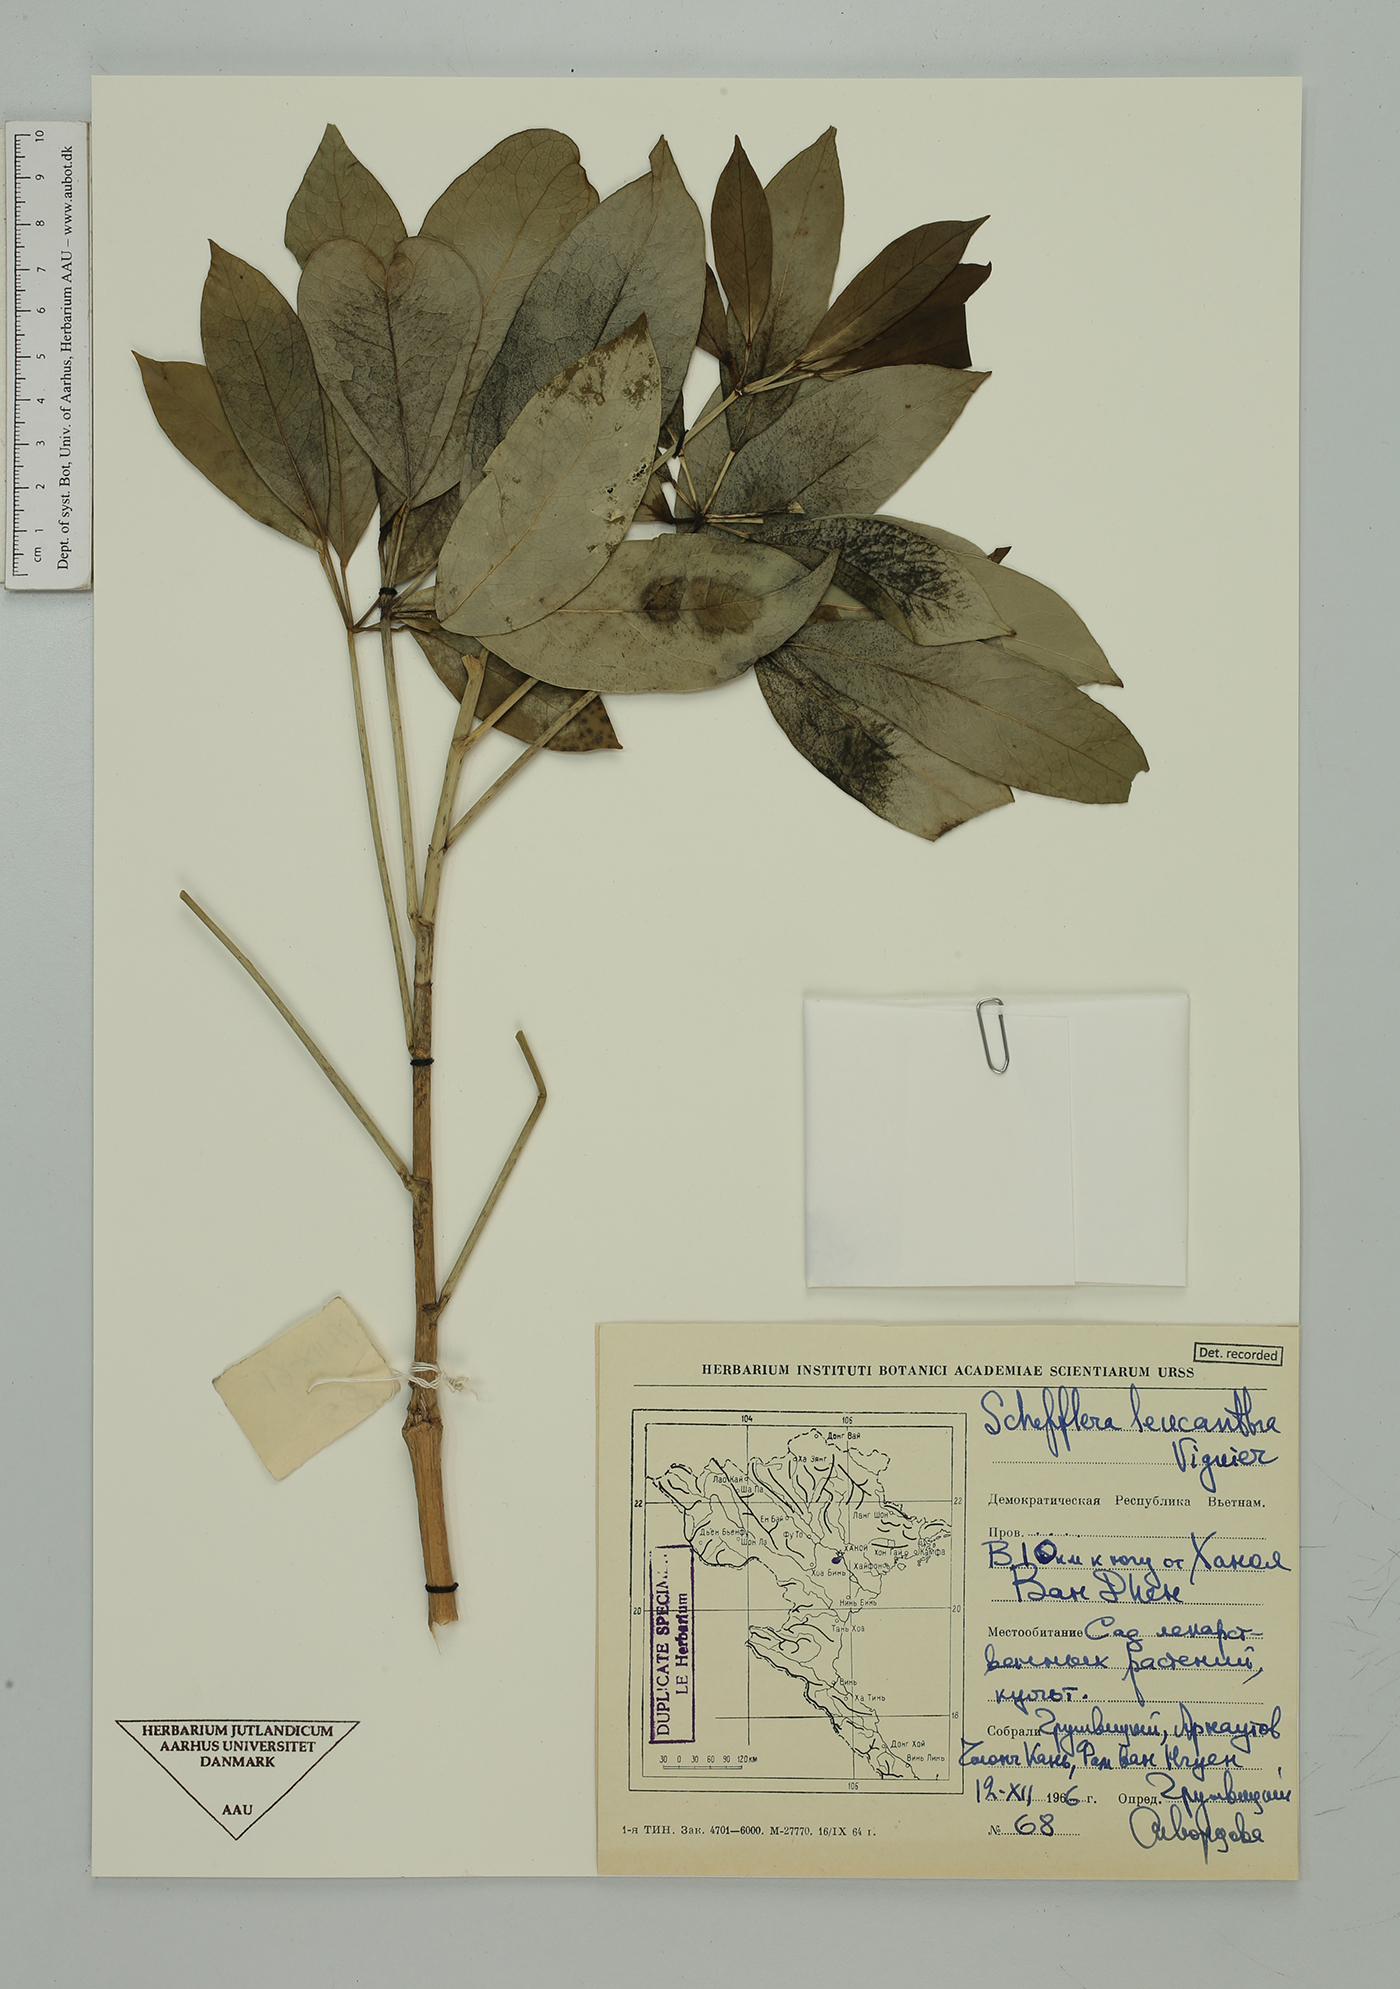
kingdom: Plantae
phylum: Tracheophyta
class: Magnoliopsida
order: Apiales
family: Araliaceae
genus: Heptapleurum
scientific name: Heptapleurum leucanthum
